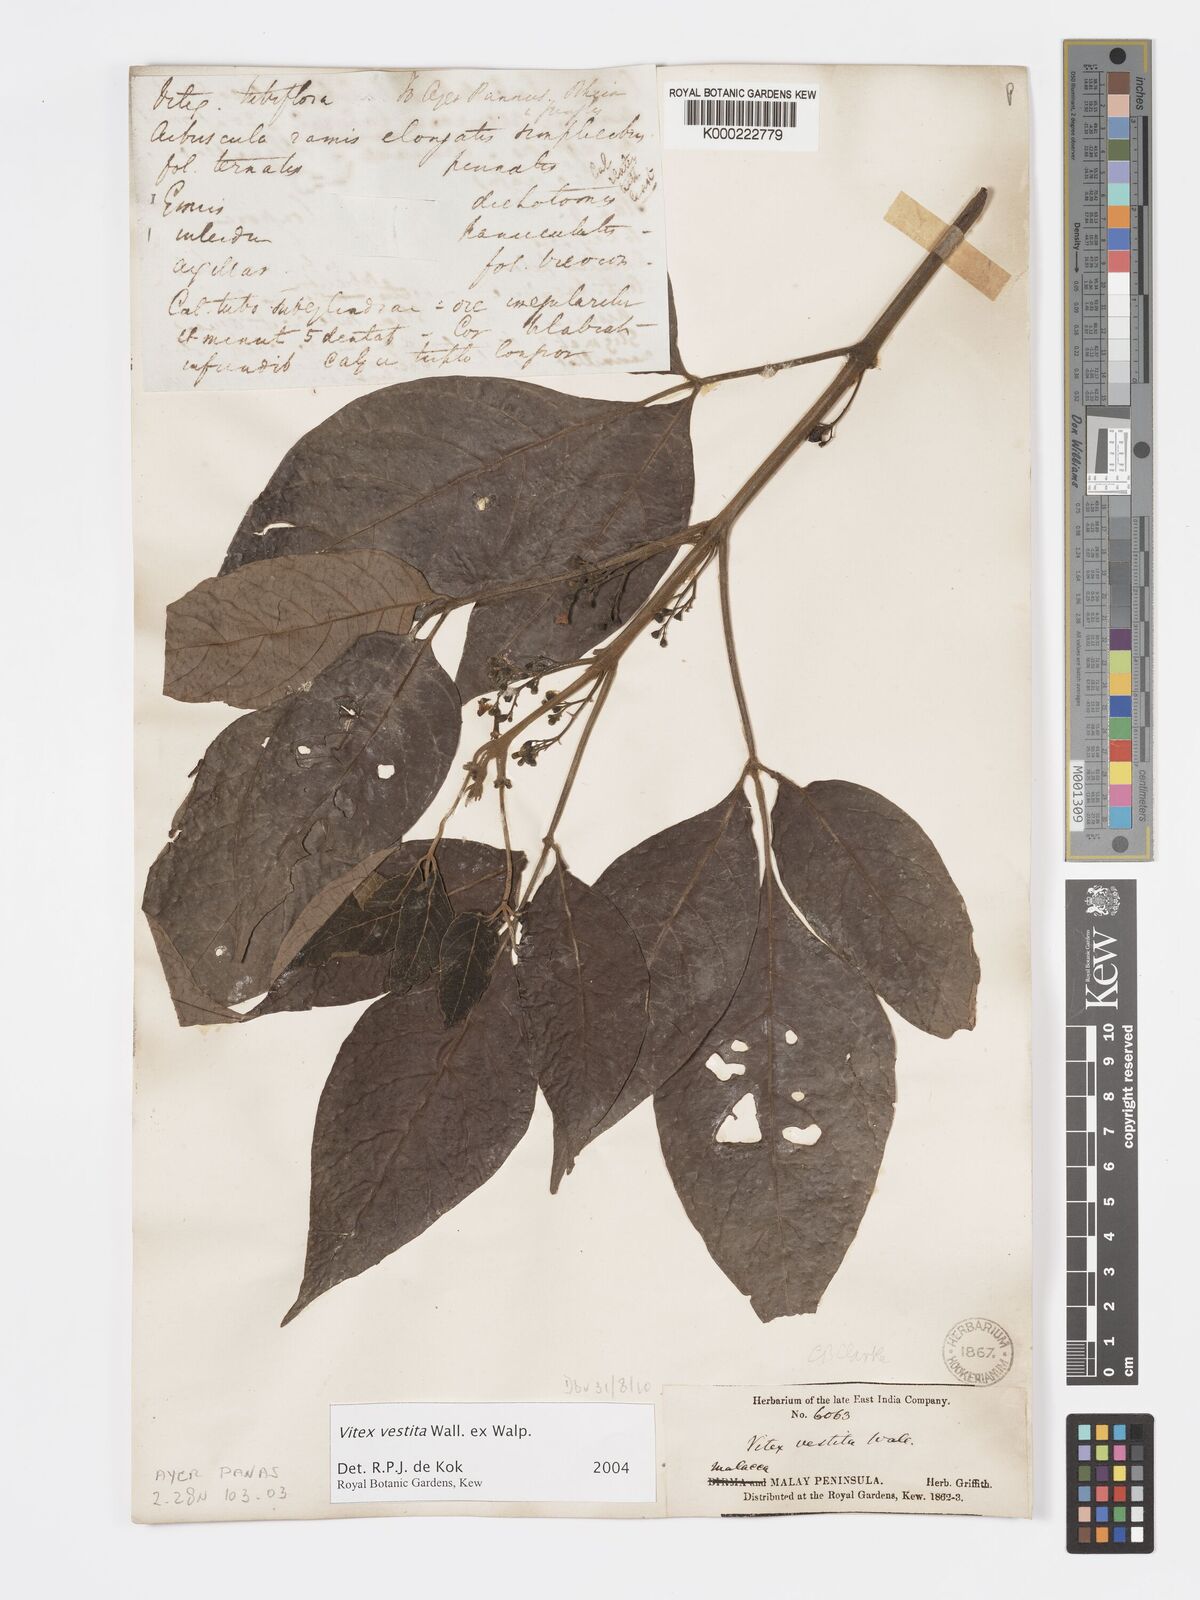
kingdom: Plantae
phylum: Tracheophyta
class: Magnoliopsida
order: Lamiales
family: Lamiaceae
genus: Vitex
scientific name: Vitex vestita
